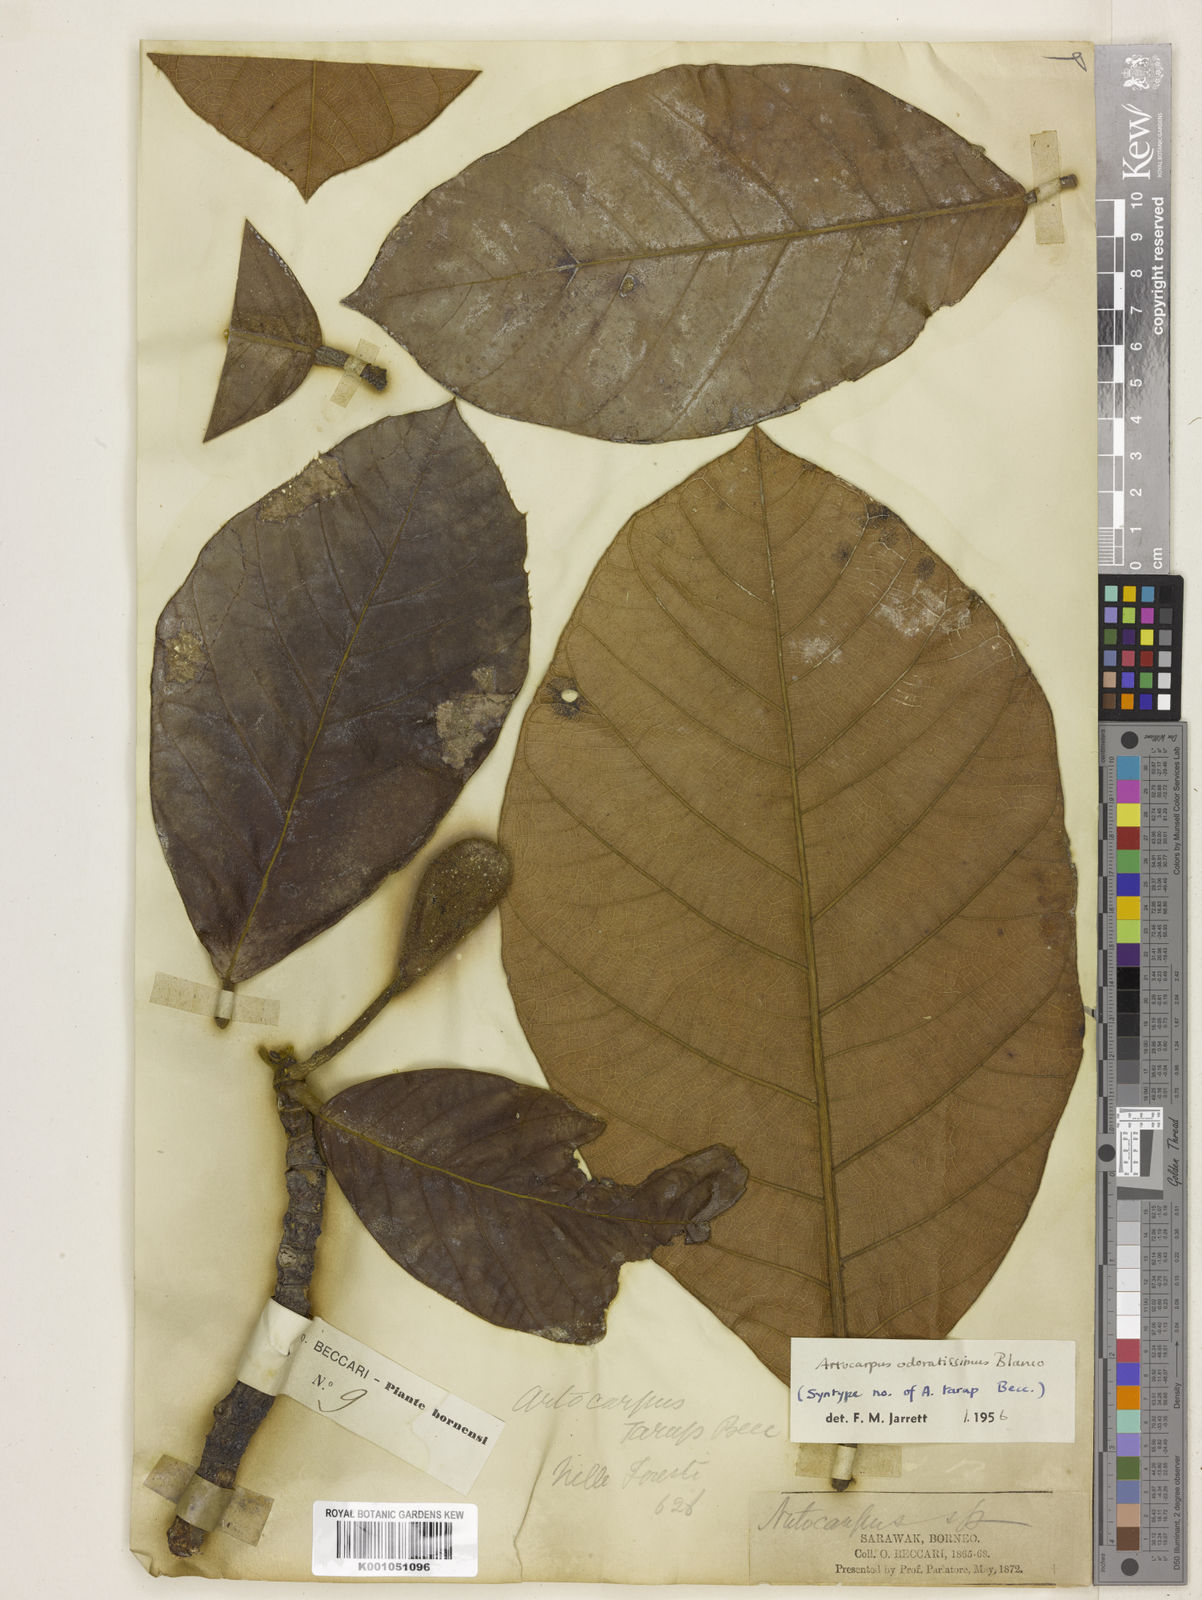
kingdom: Plantae
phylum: Tracheophyta
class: Magnoliopsida
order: Rosales
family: Moraceae
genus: Artocarpus
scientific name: Artocarpus odoratissimus
